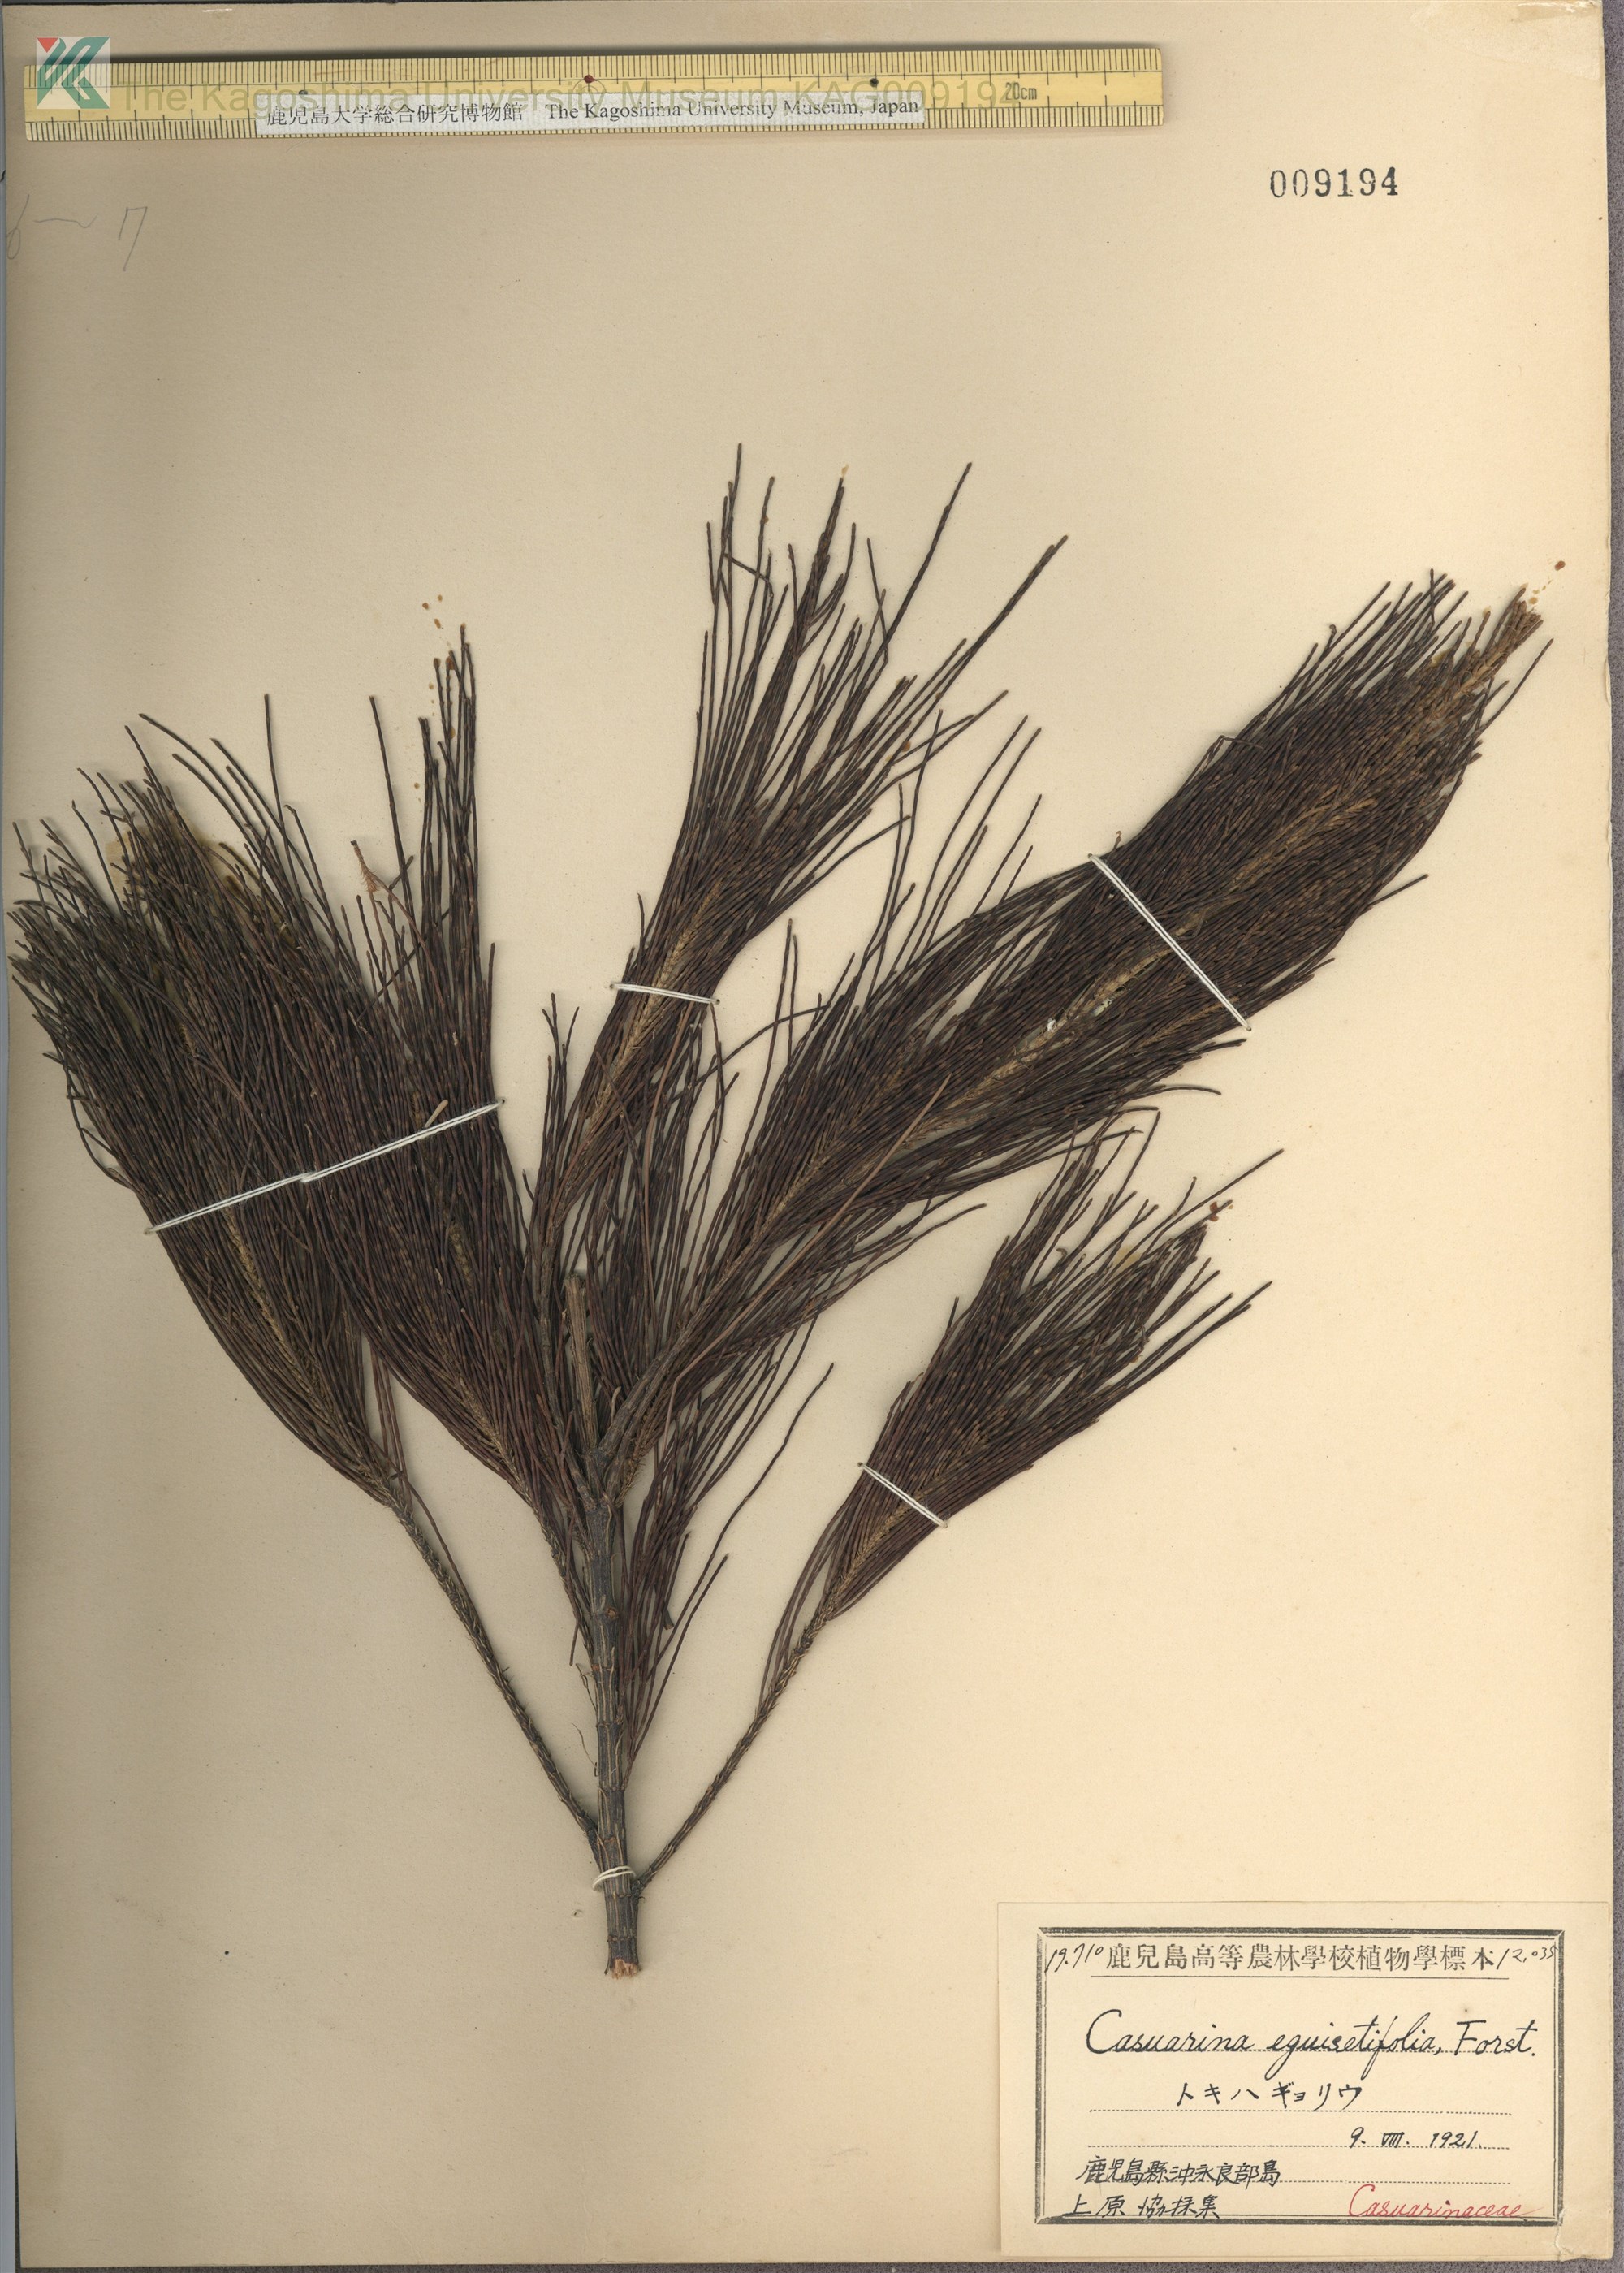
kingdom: Plantae
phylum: Tracheophyta
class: Magnoliopsida
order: Fagales
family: Casuarinaceae
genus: Casuarina
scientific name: Casuarina equisetifolia
